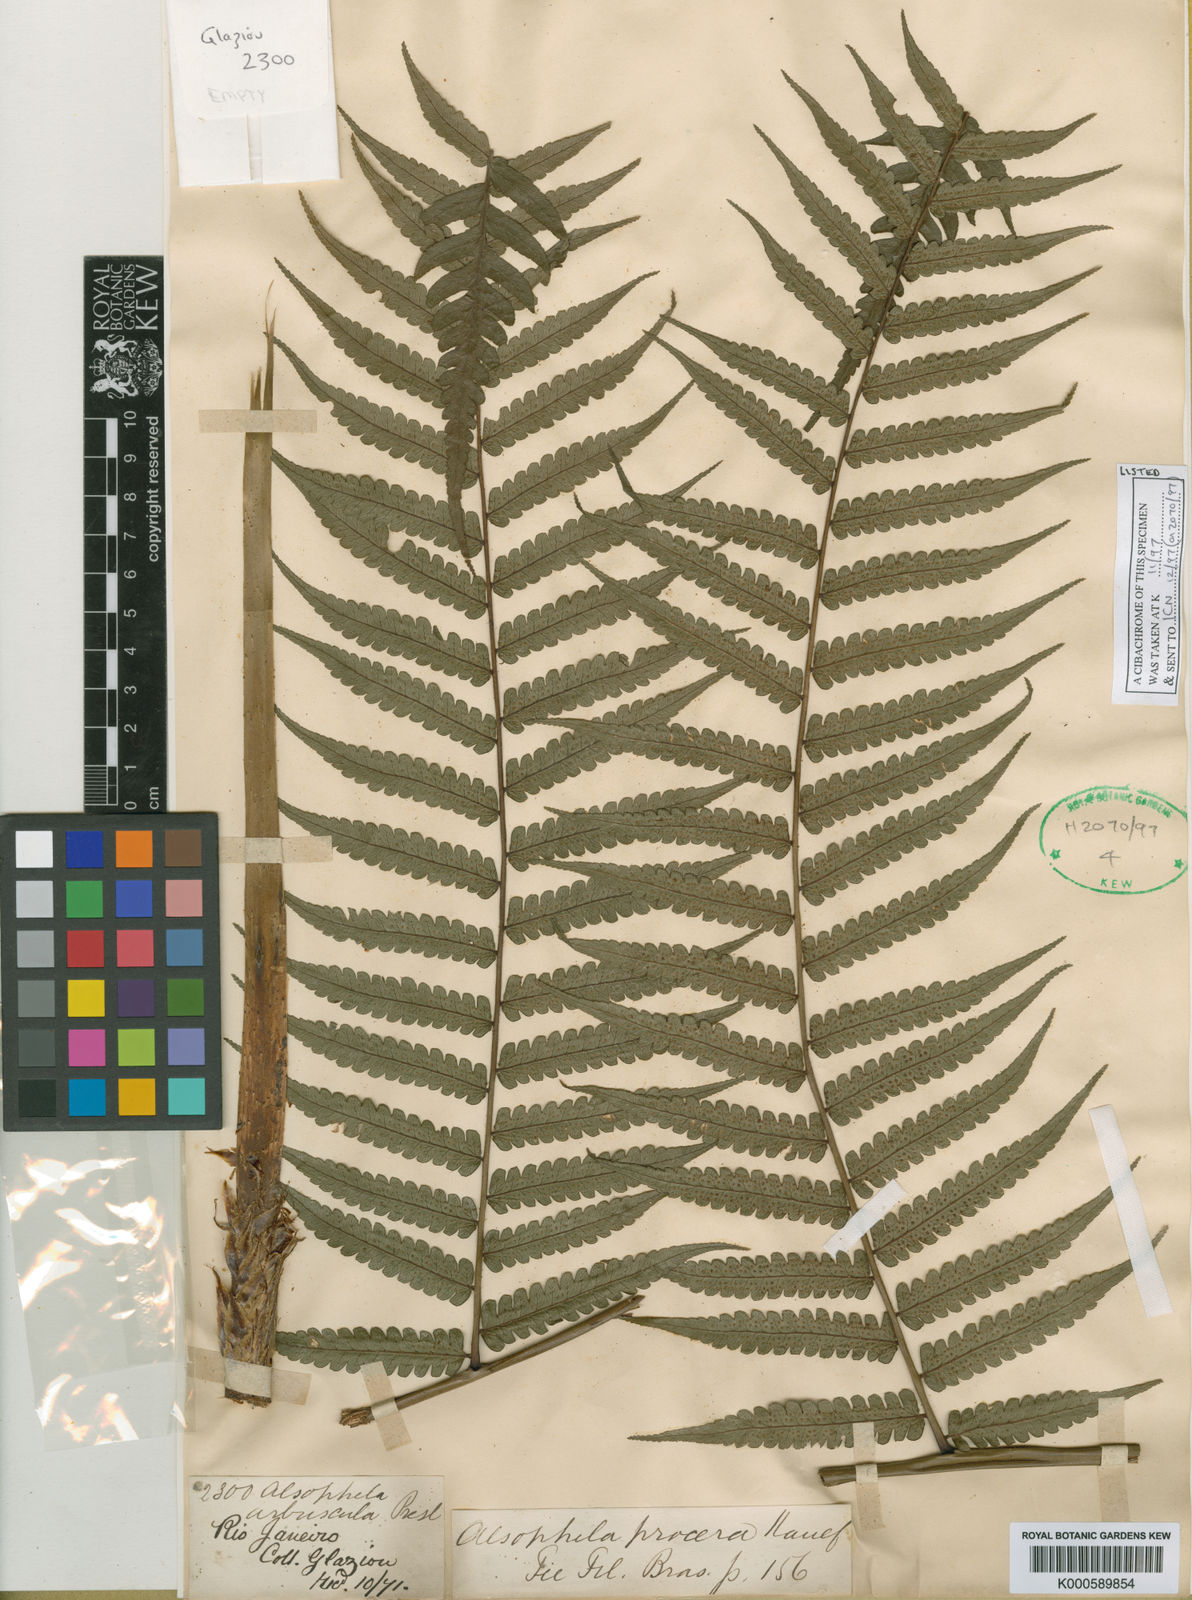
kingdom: Plantae
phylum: Tracheophyta
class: Polypodiopsida
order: Cyatheales
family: Cyatheaceae
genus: Cyathea
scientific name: Cyathea
